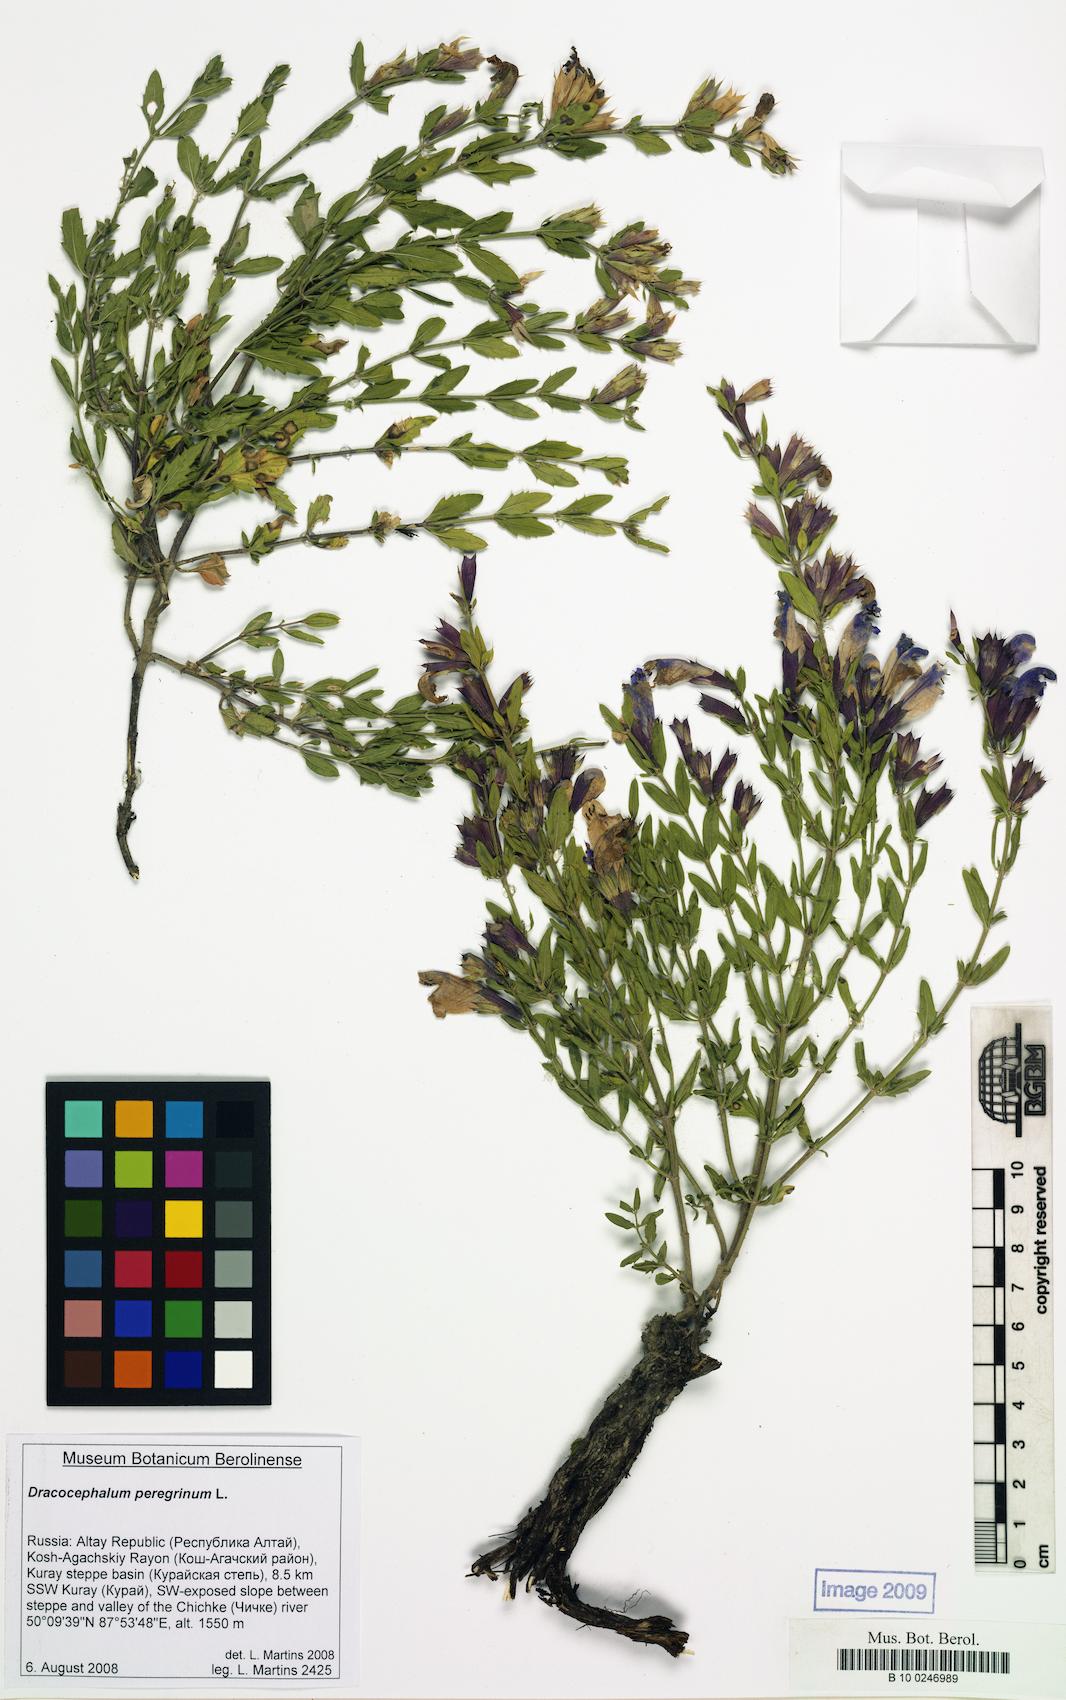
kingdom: Plantae
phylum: Tracheophyta
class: Magnoliopsida
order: Lamiales
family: Lamiaceae
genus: Dracocephalum
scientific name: Dracocephalum peregrinum
